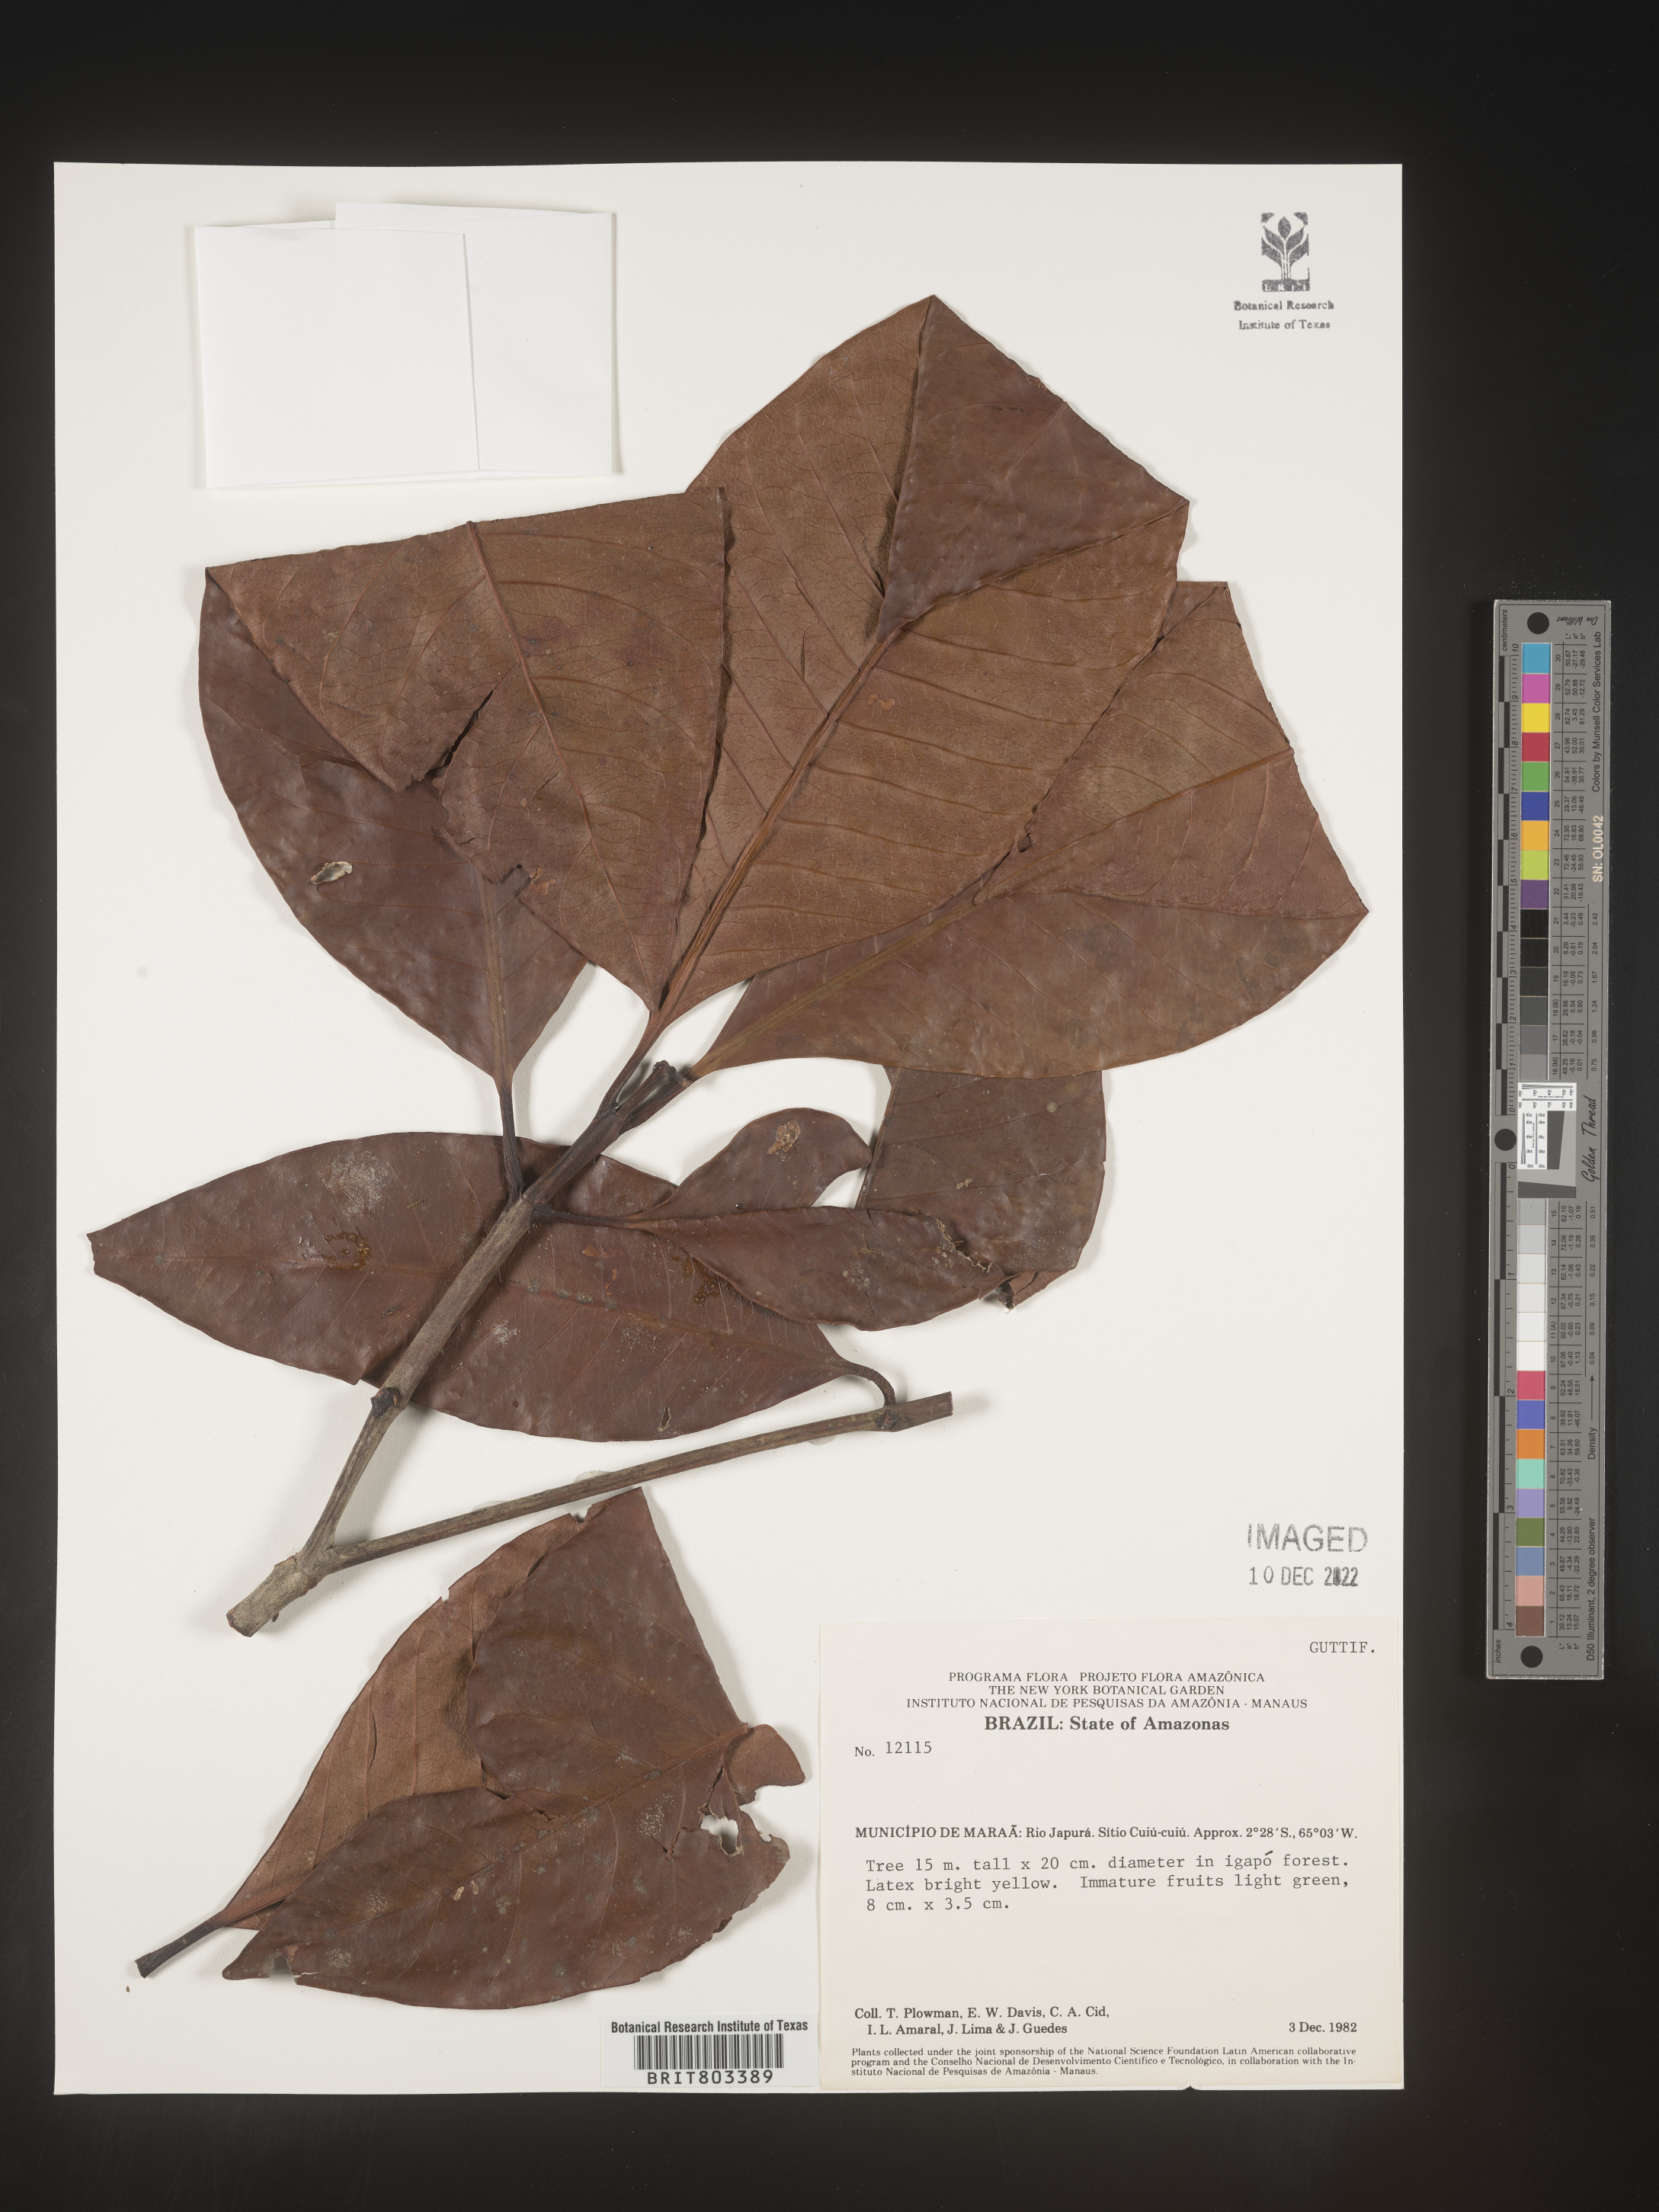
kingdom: Plantae
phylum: Tracheophyta
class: Magnoliopsida
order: Malpighiales
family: Clusiaceae
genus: Tovomita
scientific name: Tovomita
